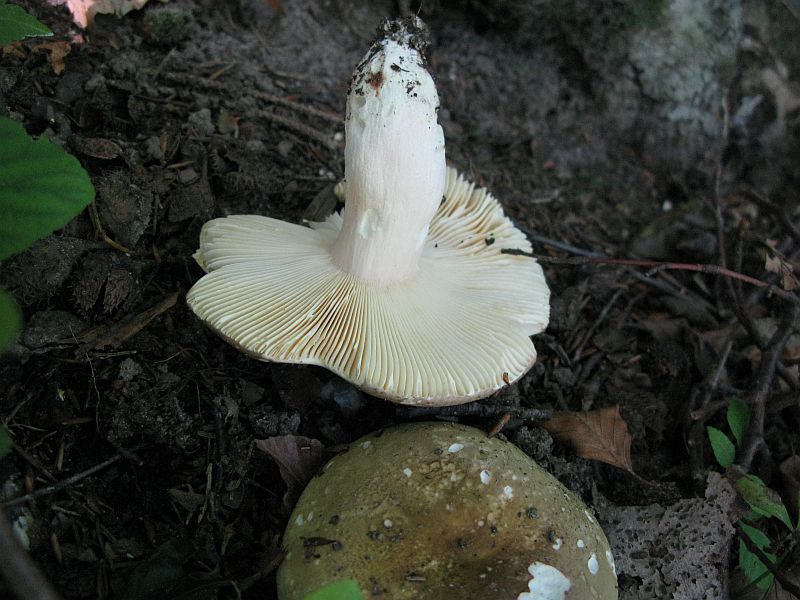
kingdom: Fungi
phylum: Basidiomycota
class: Agaricomycetes
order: Russulales
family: Russulaceae
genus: Russula
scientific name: Russula olivacea
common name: stor skørhat
